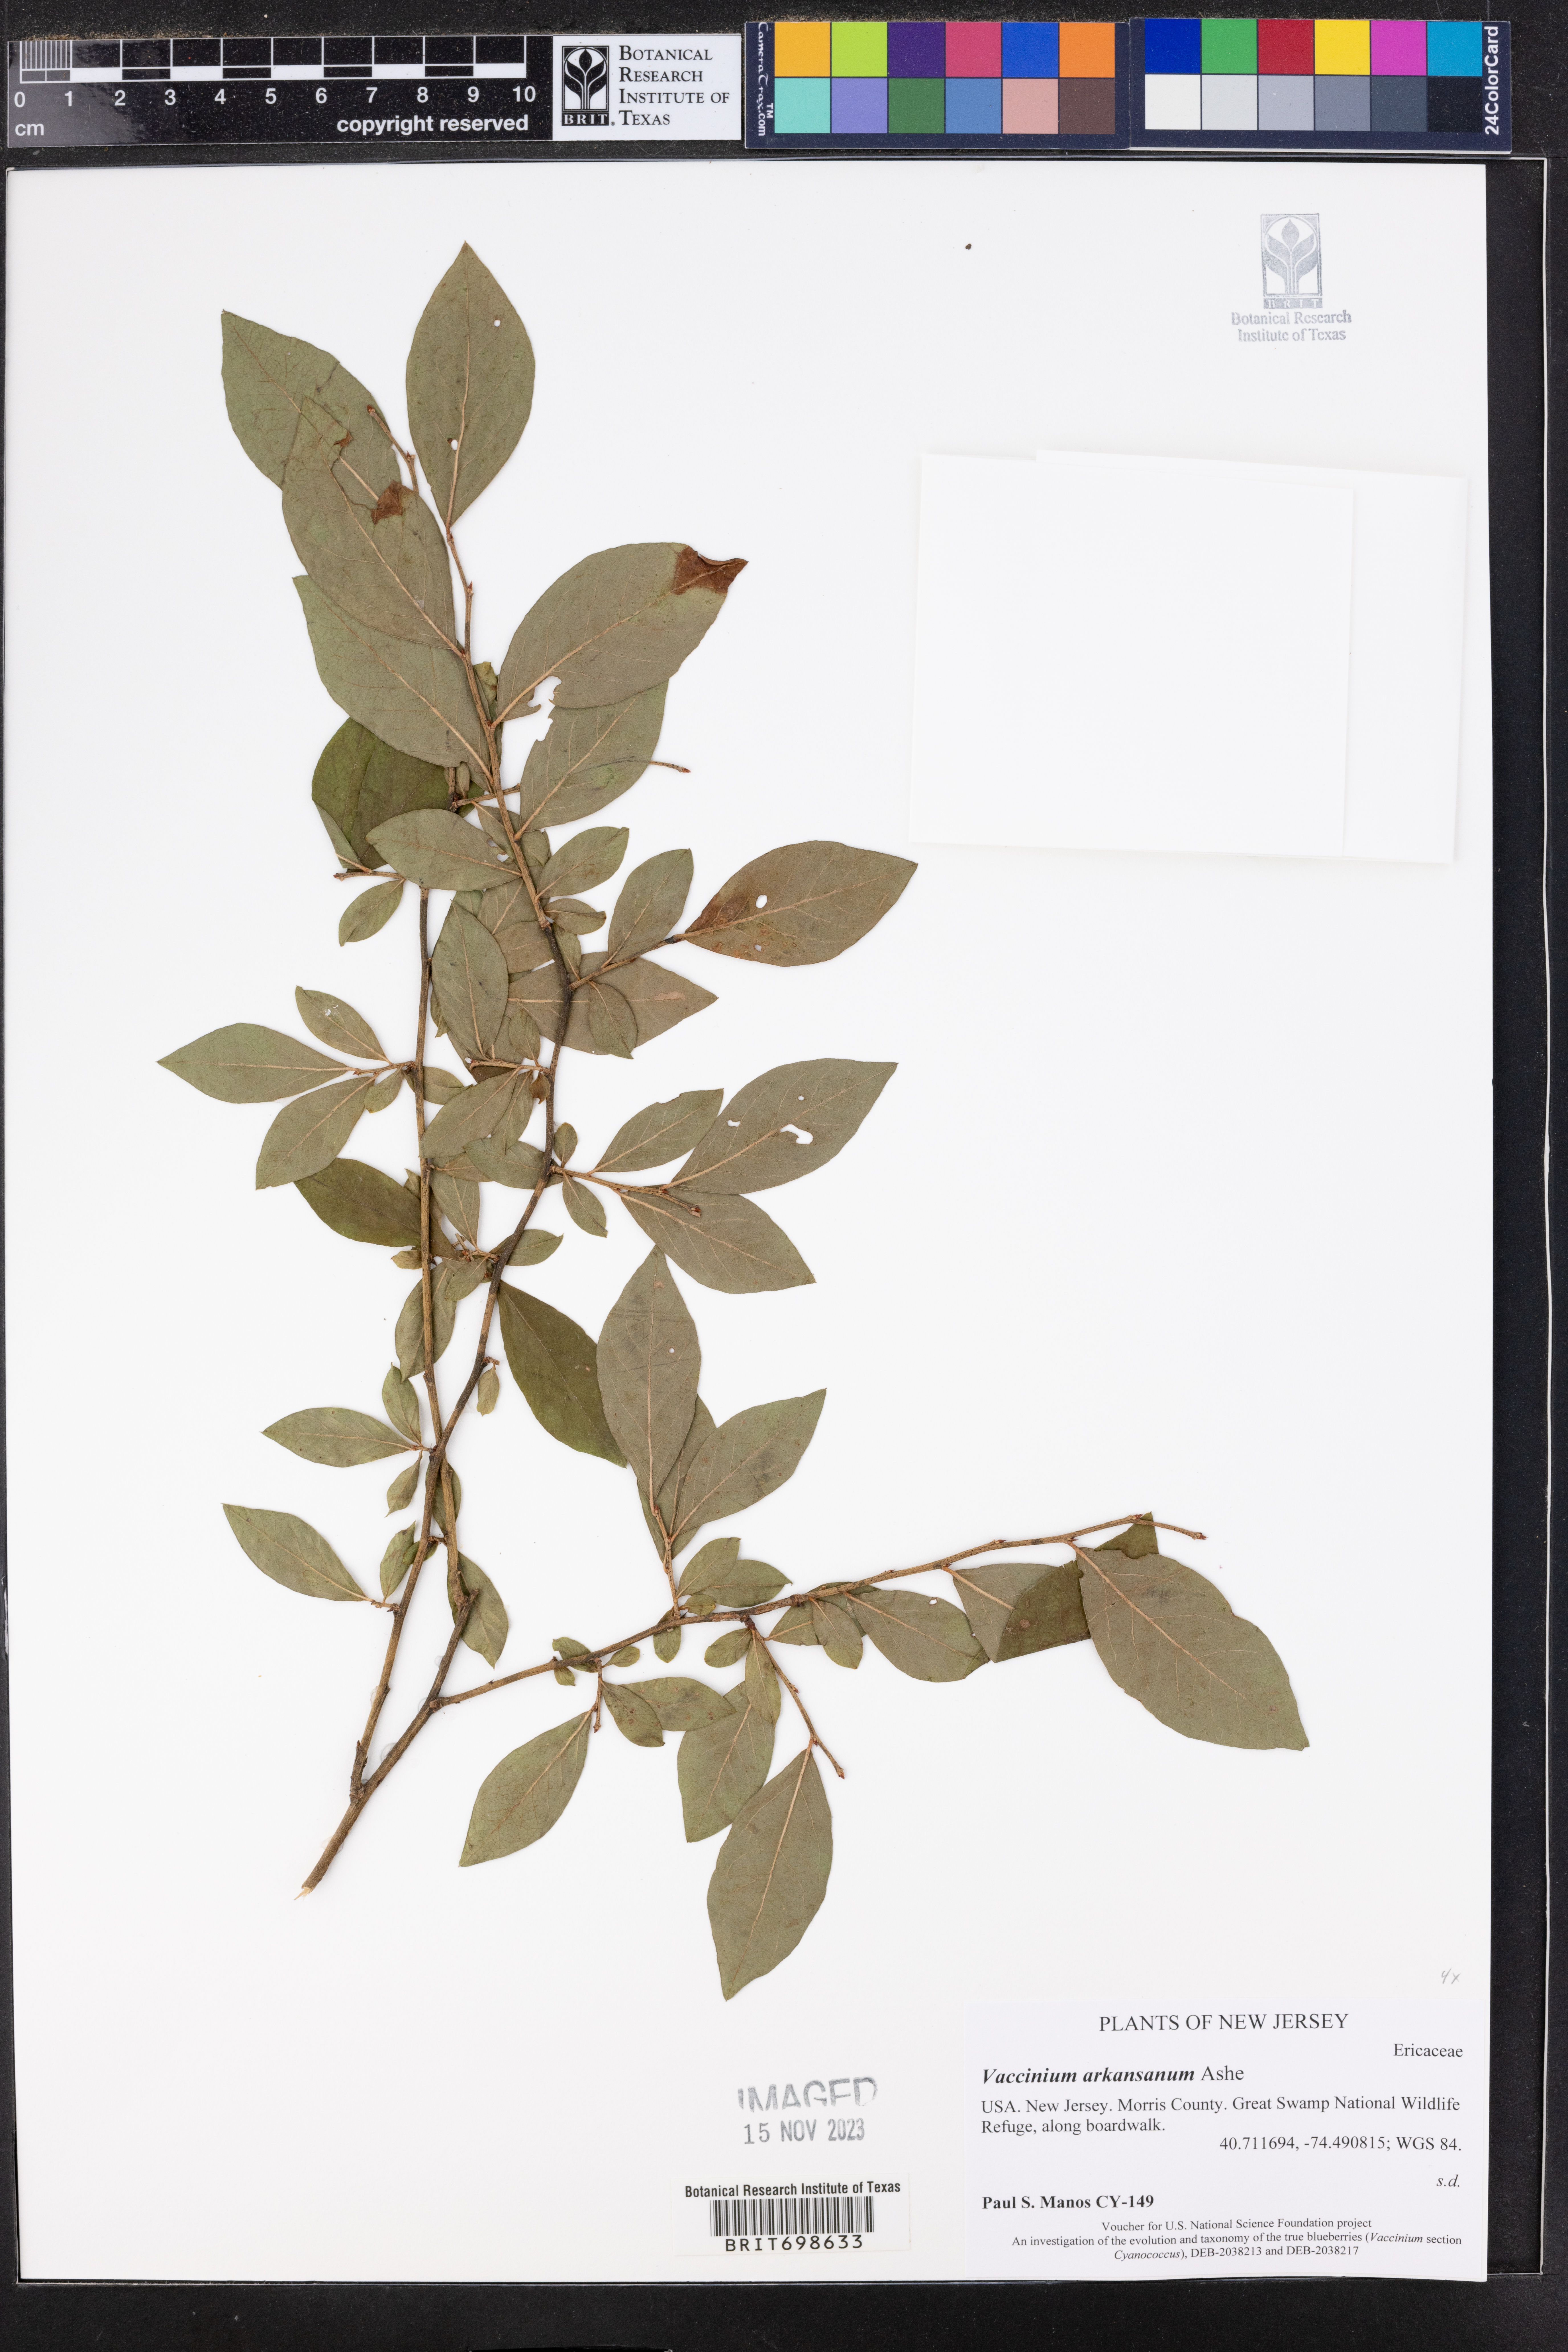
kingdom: Plantae
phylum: Tracheophyta
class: Magnoliopsida
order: Ericales
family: Ericaceae
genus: Vaccinium
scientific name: Vaccinium corymbosum
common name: Blueberry
